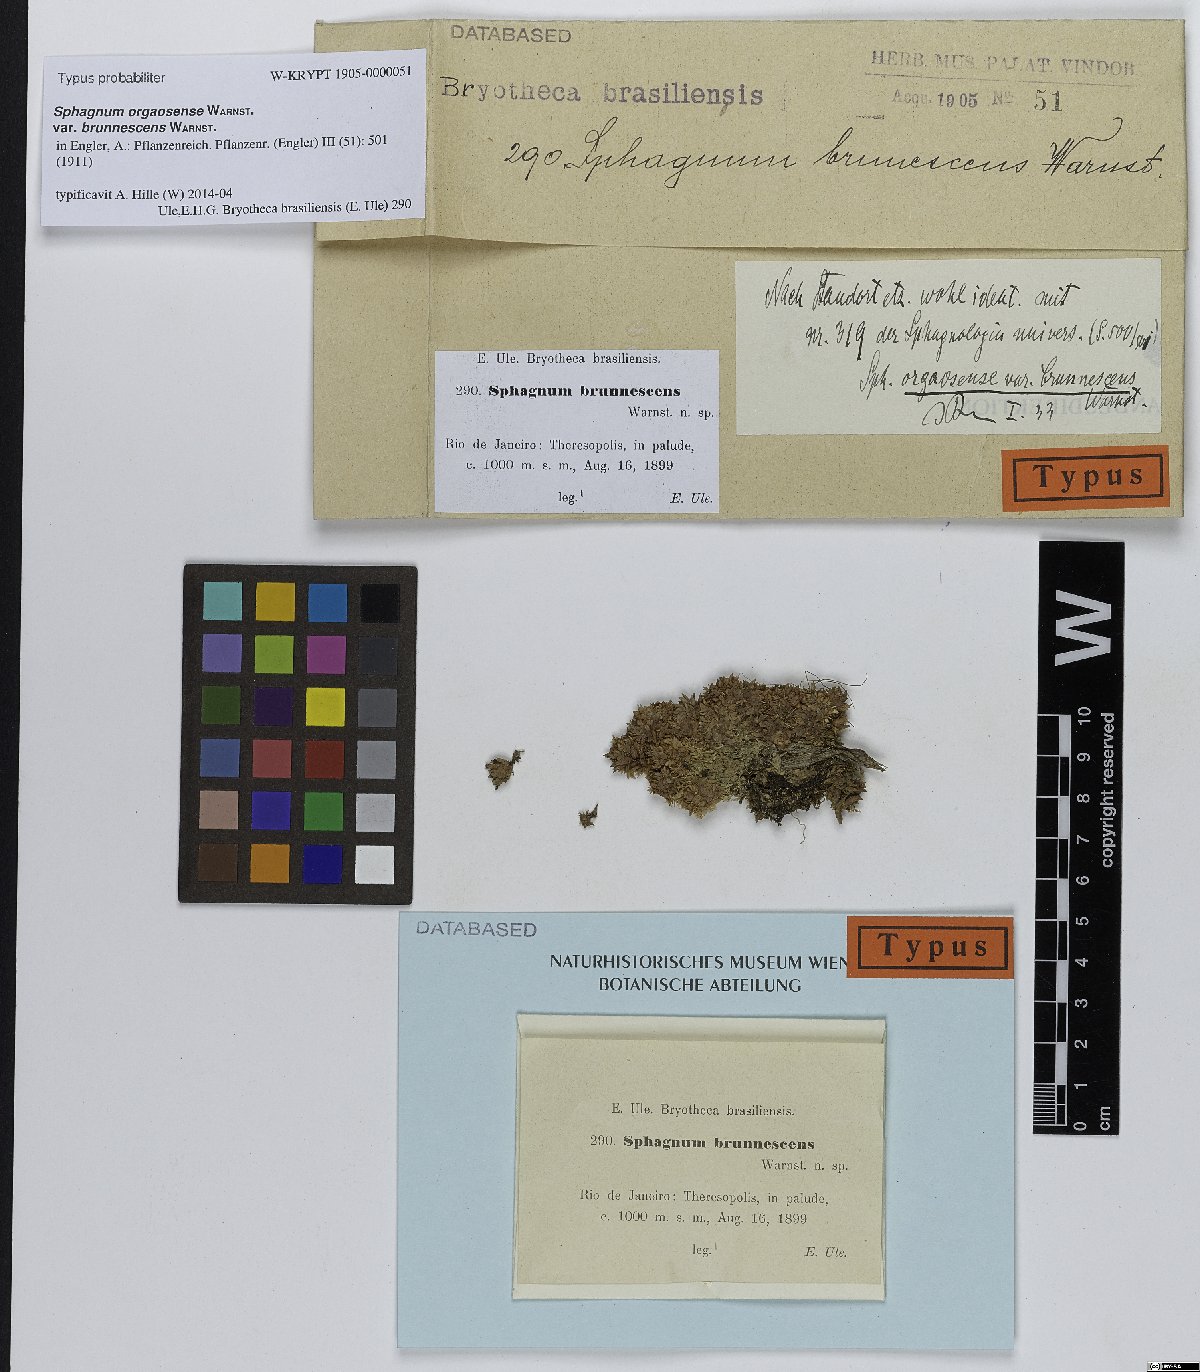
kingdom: Plantae
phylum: Bryophyta
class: Sphagnopsida
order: Sphagnales
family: Sphagnaceae
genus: Sphagnum
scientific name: Sphagnum perichaetiale
